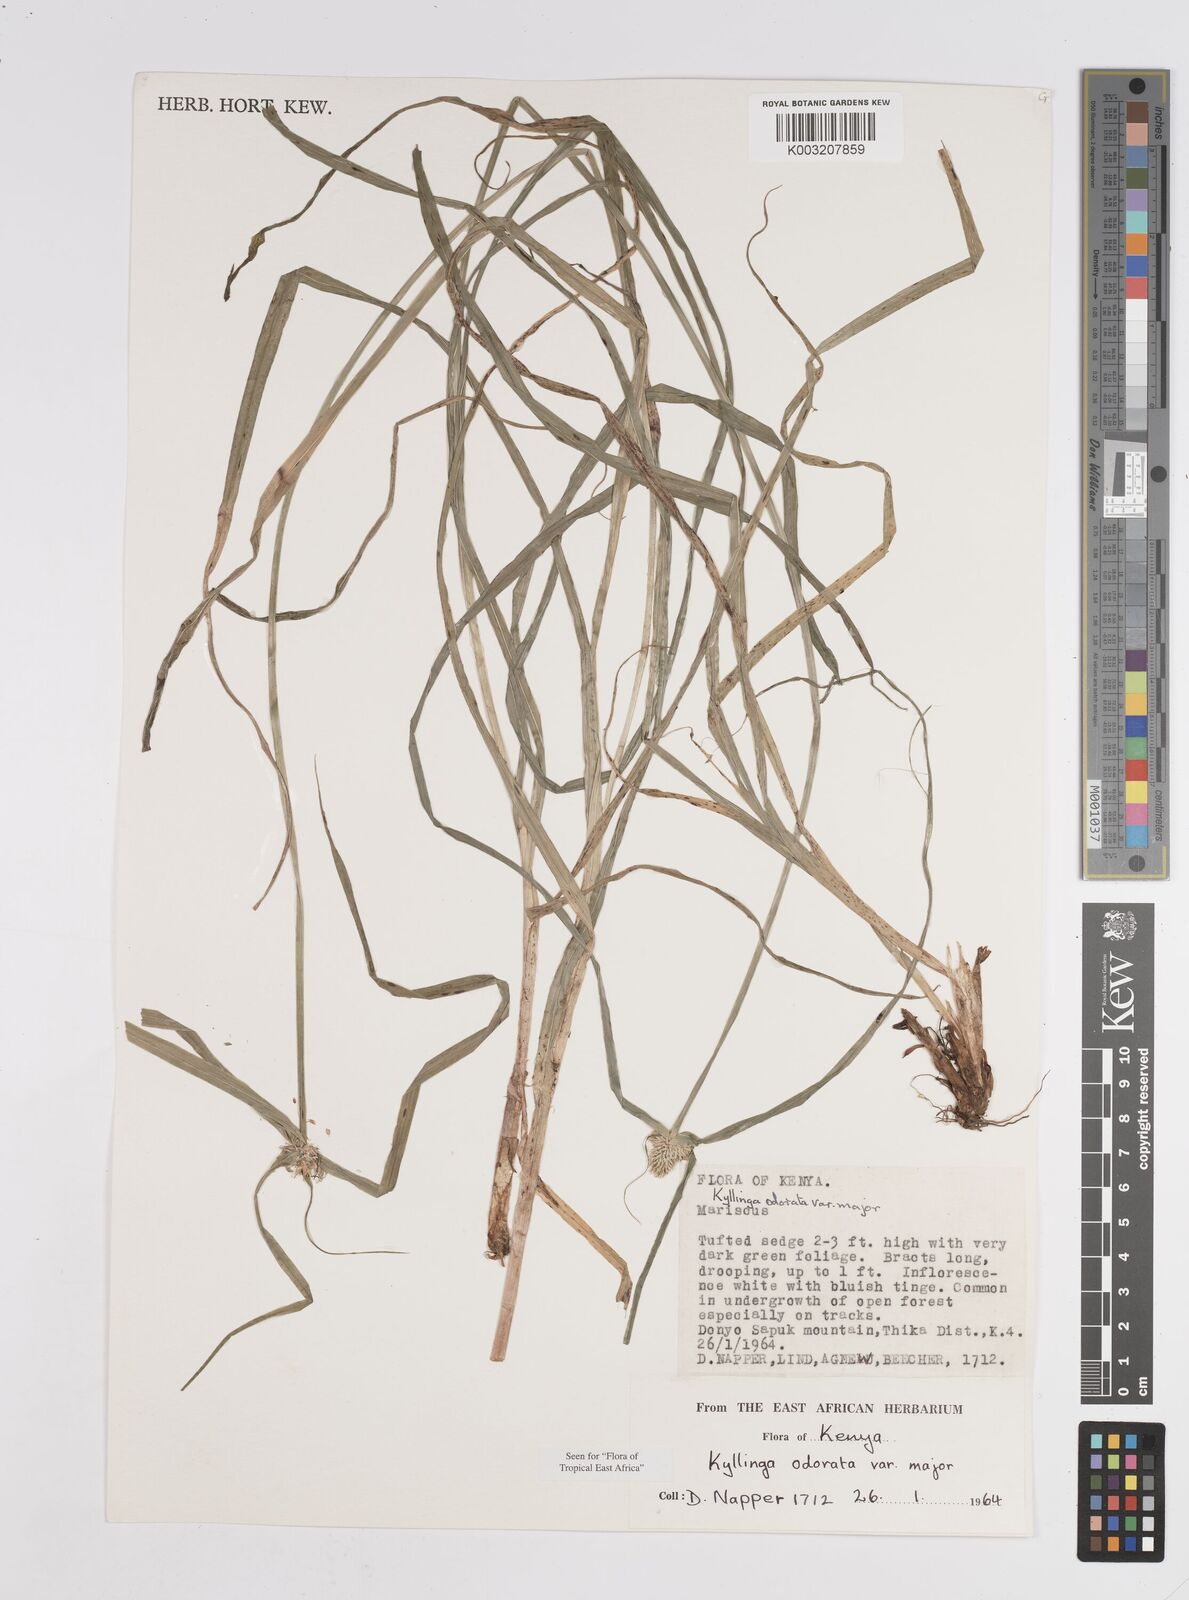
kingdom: Plantae
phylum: Tracheophyta
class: Liliopsida
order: Poales
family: Cyperaceae
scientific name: Cyperaceae
